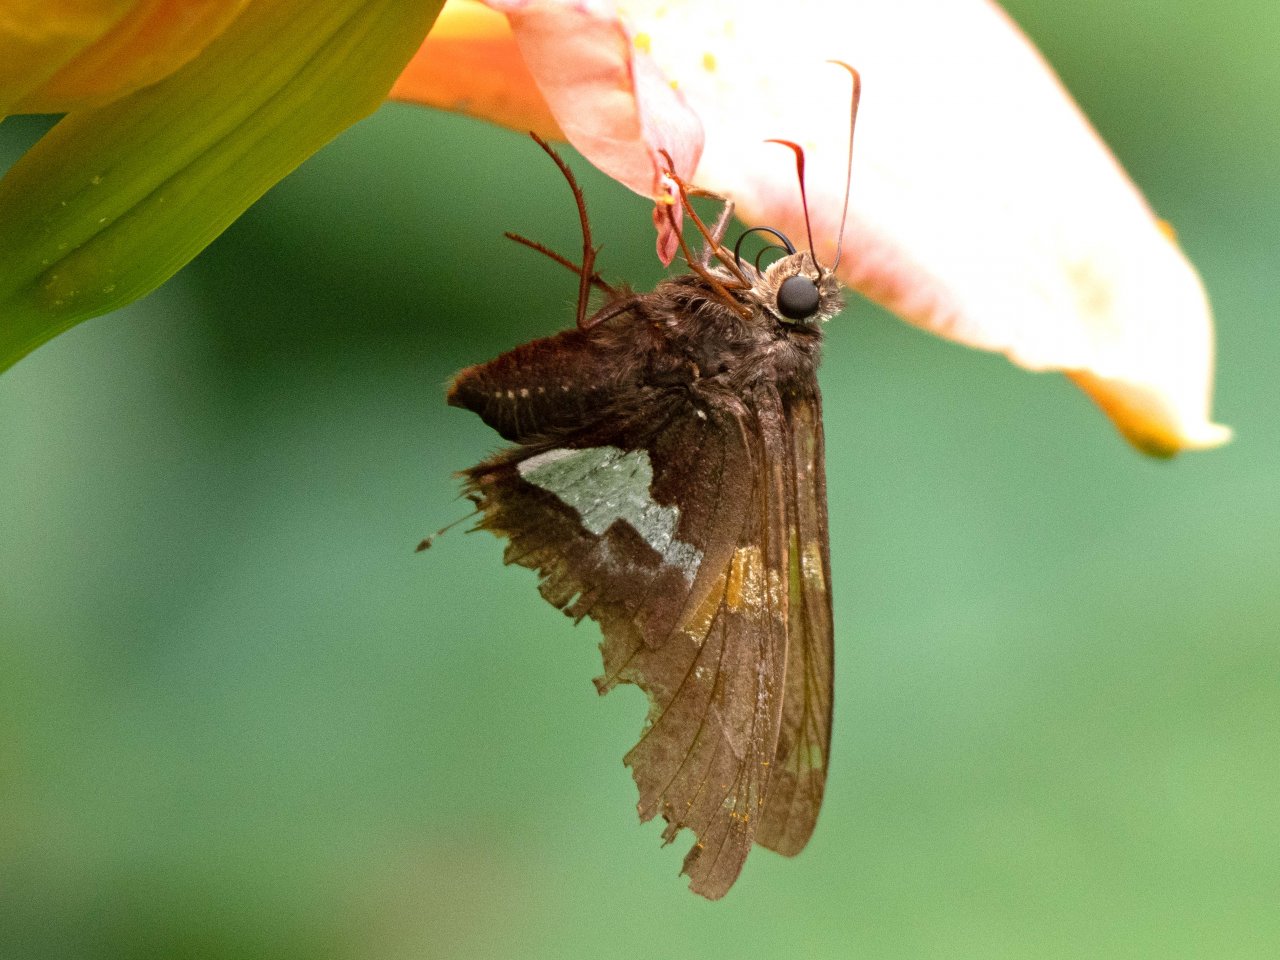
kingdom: Animalia
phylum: Arthropoda
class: Insecta
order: Lepidoptera
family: Hesperiidae
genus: Epargyreus
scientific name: Epargyreus clarus
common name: Silver-spotted Skipper
